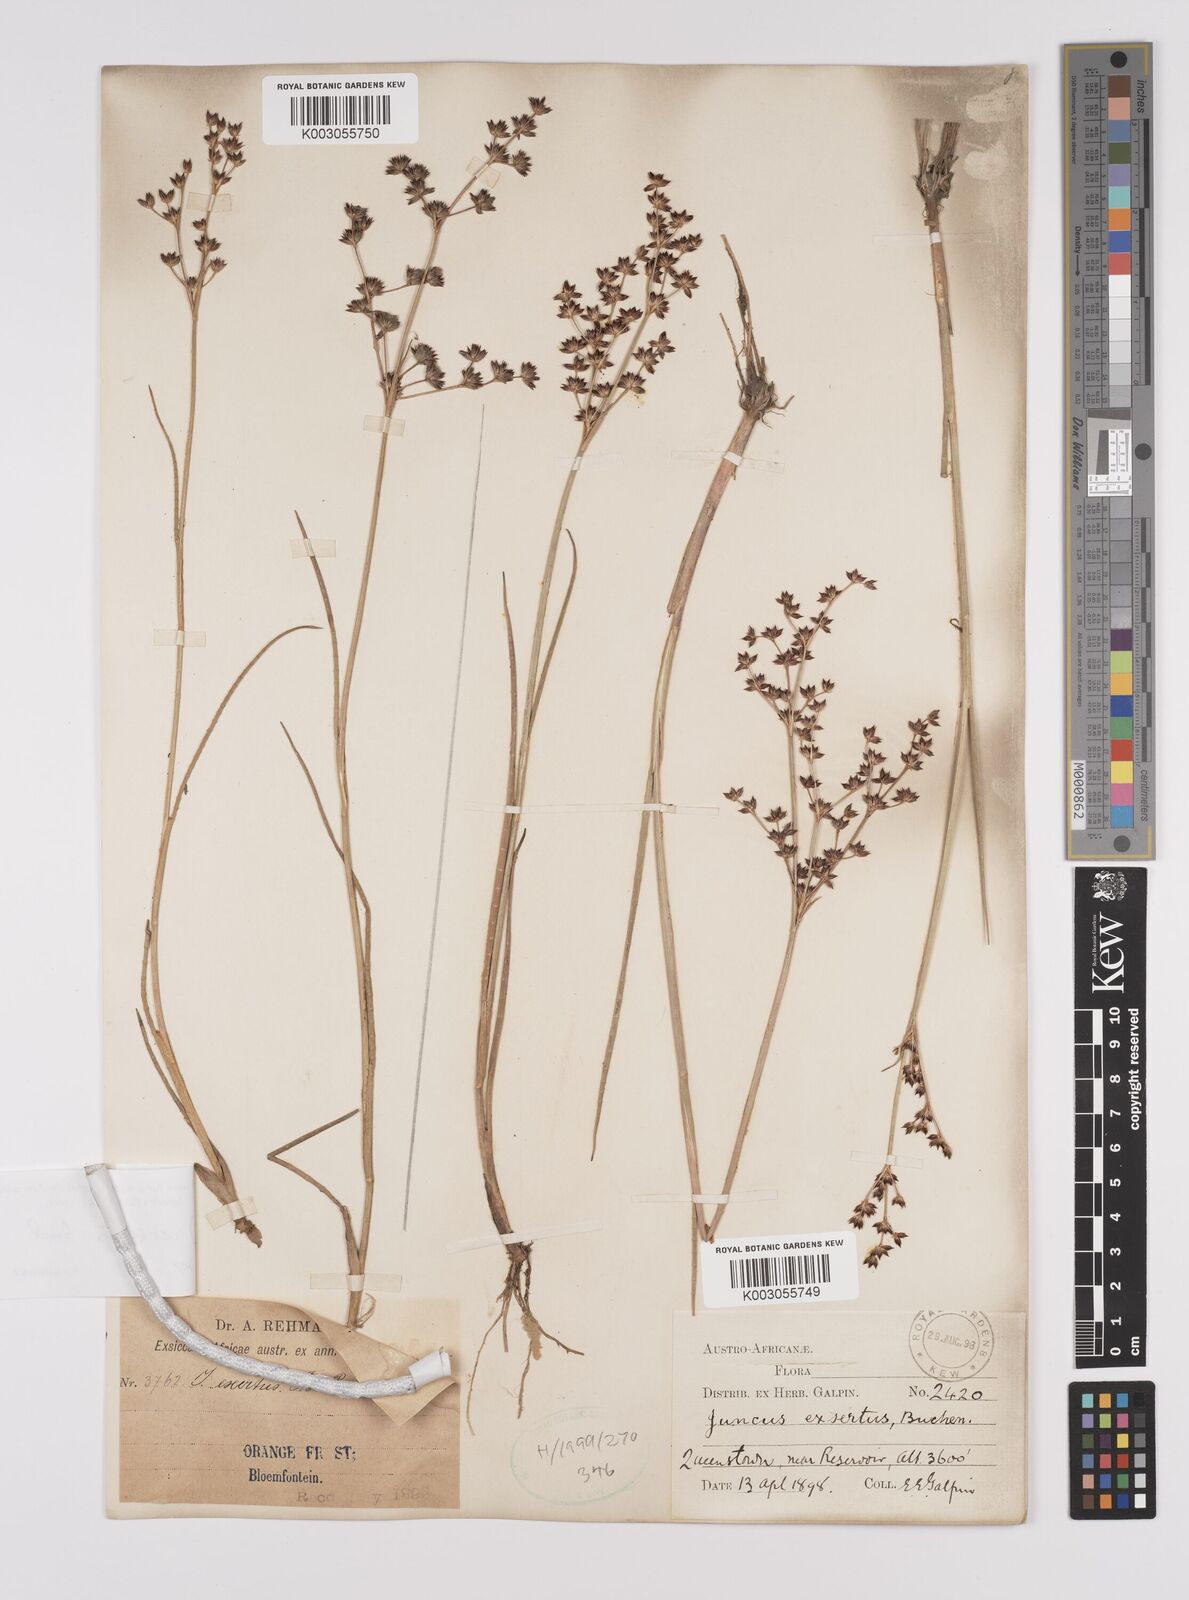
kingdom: Plantae
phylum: Tracheophyta
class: Liliopsida
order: Poales
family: Juncaceae
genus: Juncus
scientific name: Juncus exsertus
